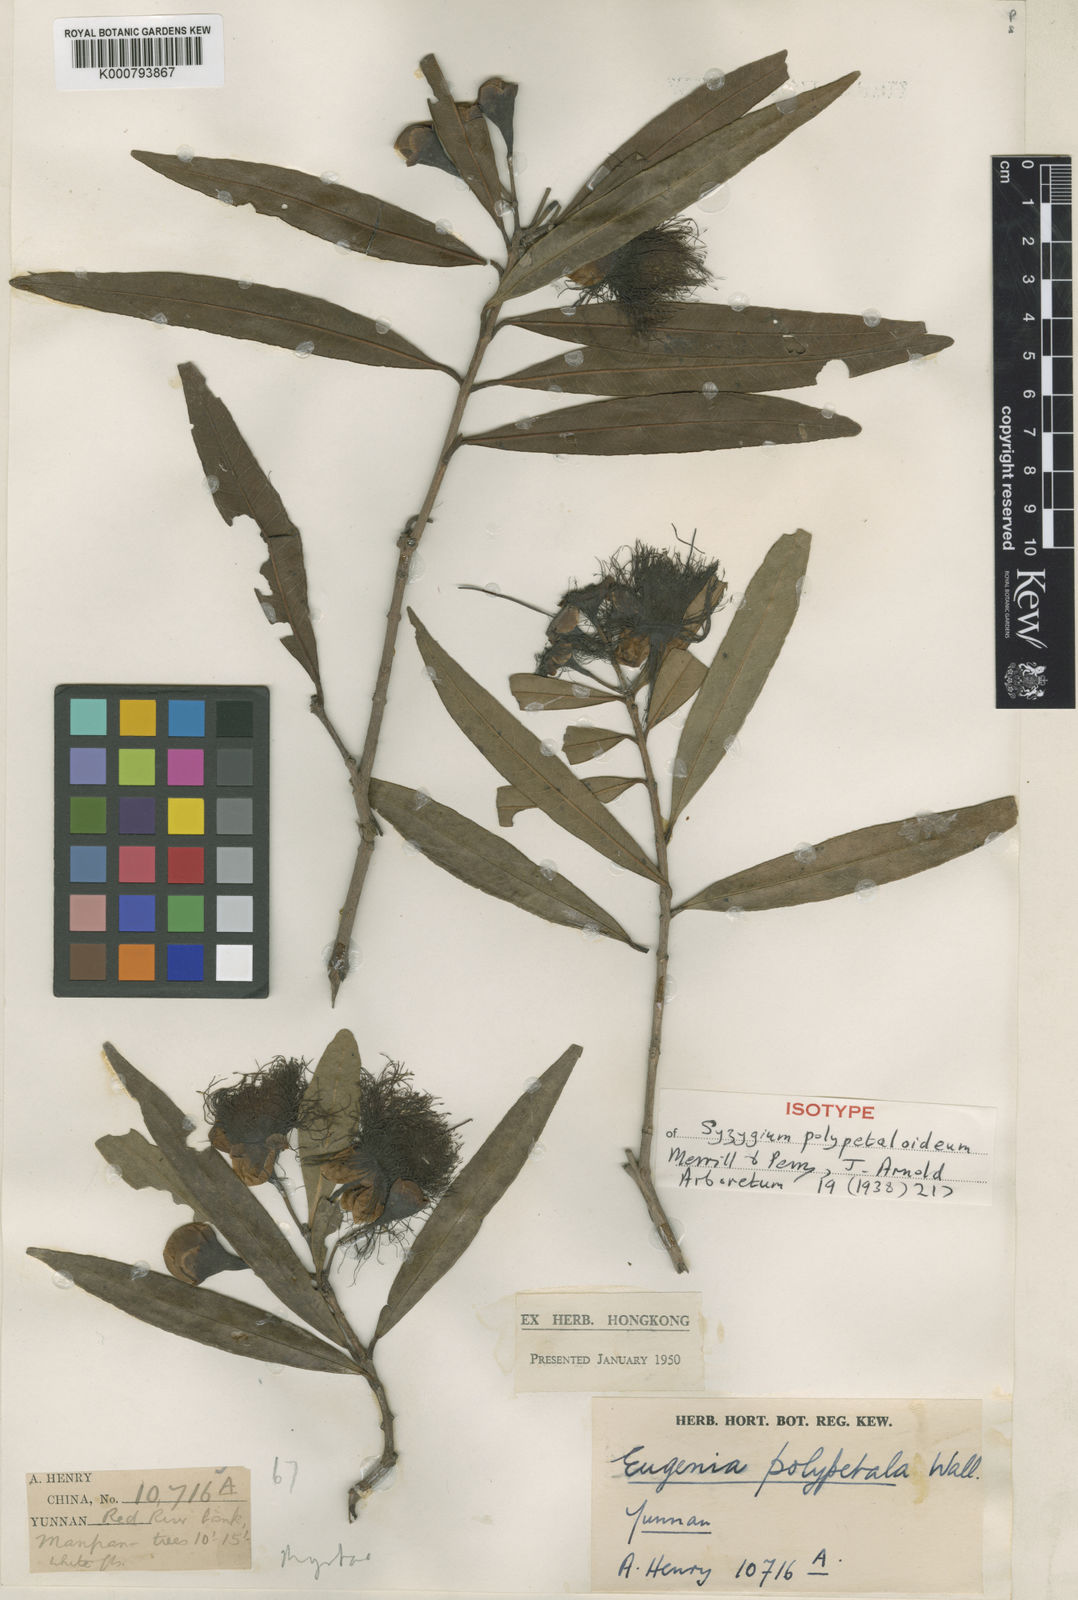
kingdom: Plantae
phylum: Tracheophyta
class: Magnoliopsida
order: Myrtales
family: Myrtaceae
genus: Syzygium
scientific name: Syzygium polypetaloideum
